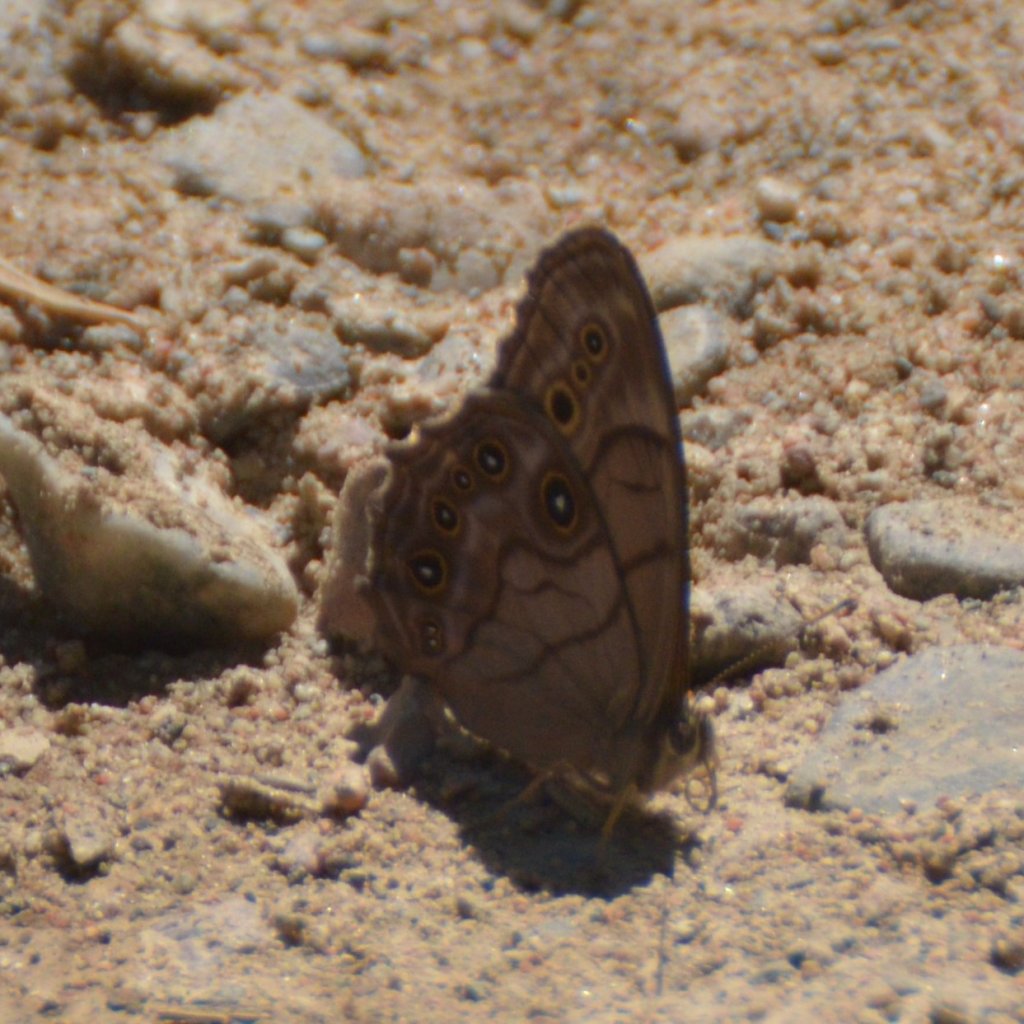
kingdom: Animalia
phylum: Arthropoda
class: Insecta
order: Lepidoptera
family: Nymphalidae
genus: Lethe
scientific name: Lethe anthedon
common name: Northern Pearly-Eye
